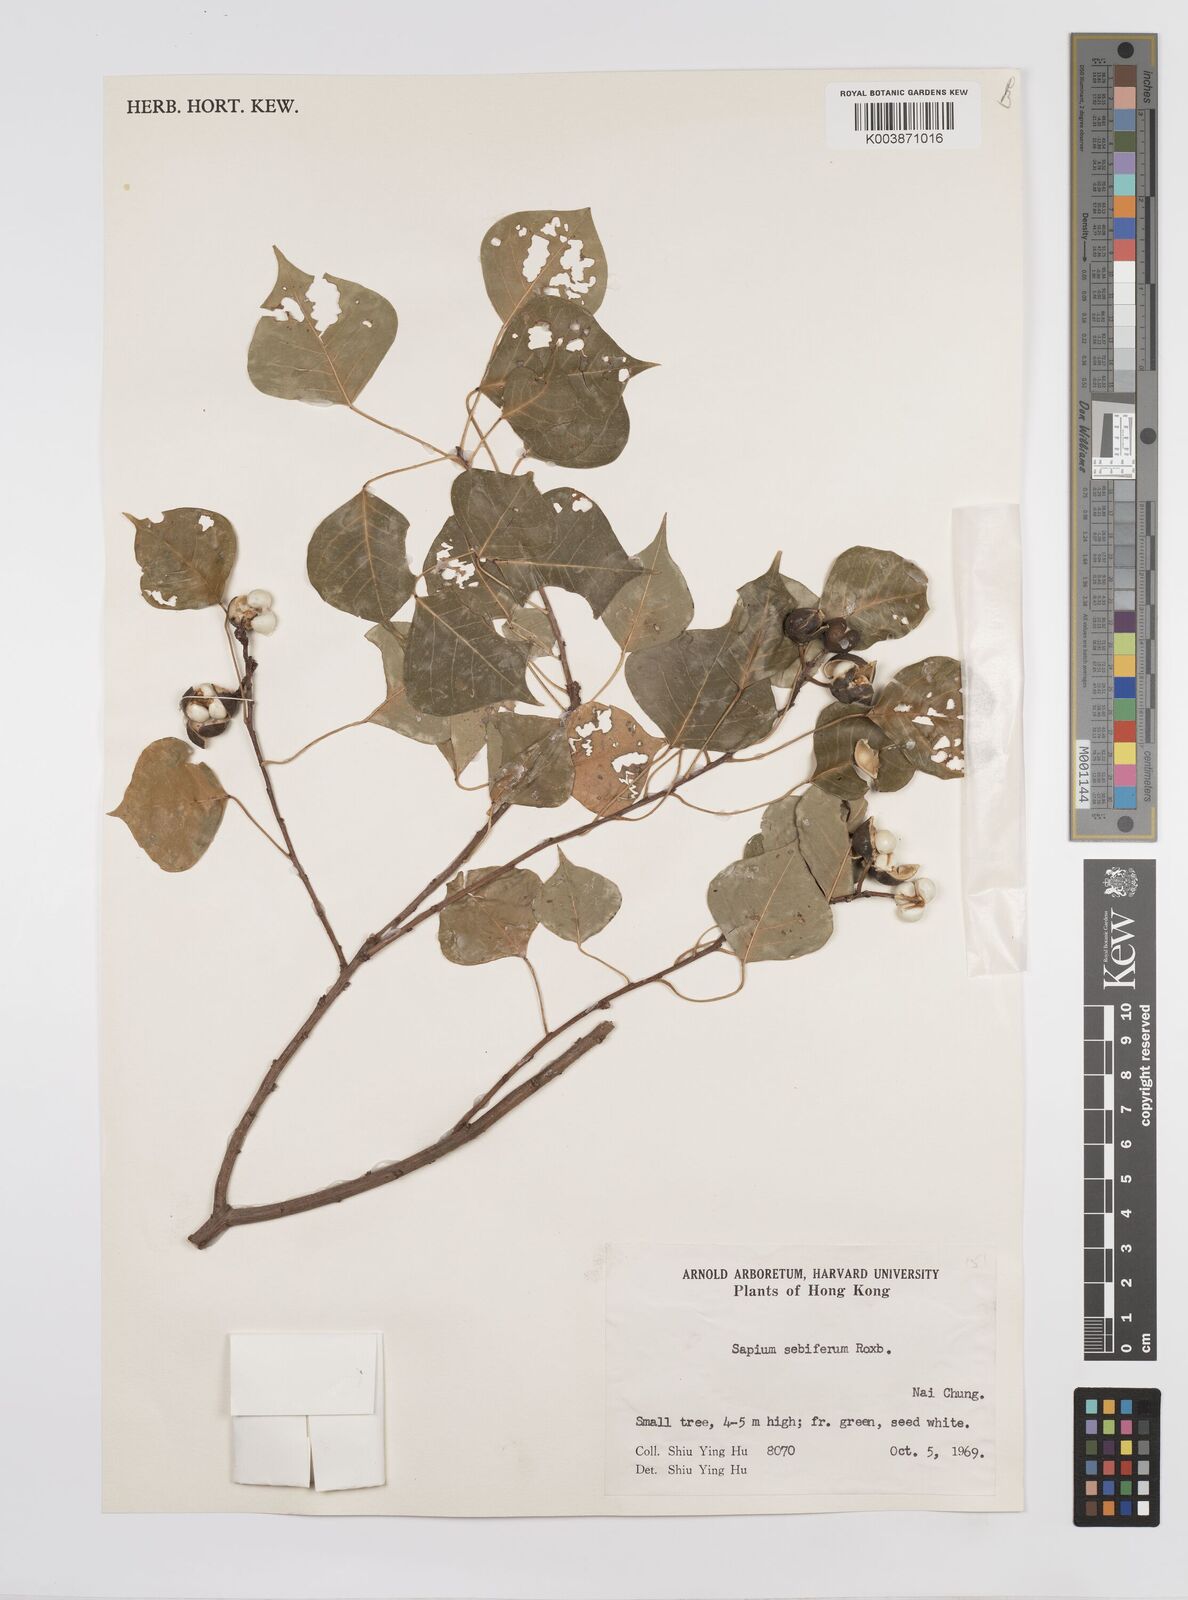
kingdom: Plantae
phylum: Tracheophyta
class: Magnoliopsida
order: Malpighiales
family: Euphorbiaceae
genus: Triadica
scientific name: Triadica sebifera
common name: Chinese tallow
